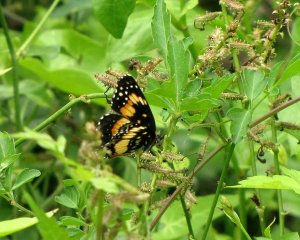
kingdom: Animalia
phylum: Arthropoda
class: Insecta
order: Lepidoptera
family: Nymphalidae
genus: Chlosyne
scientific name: Chlosyne lacinia
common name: Bordered Patch
